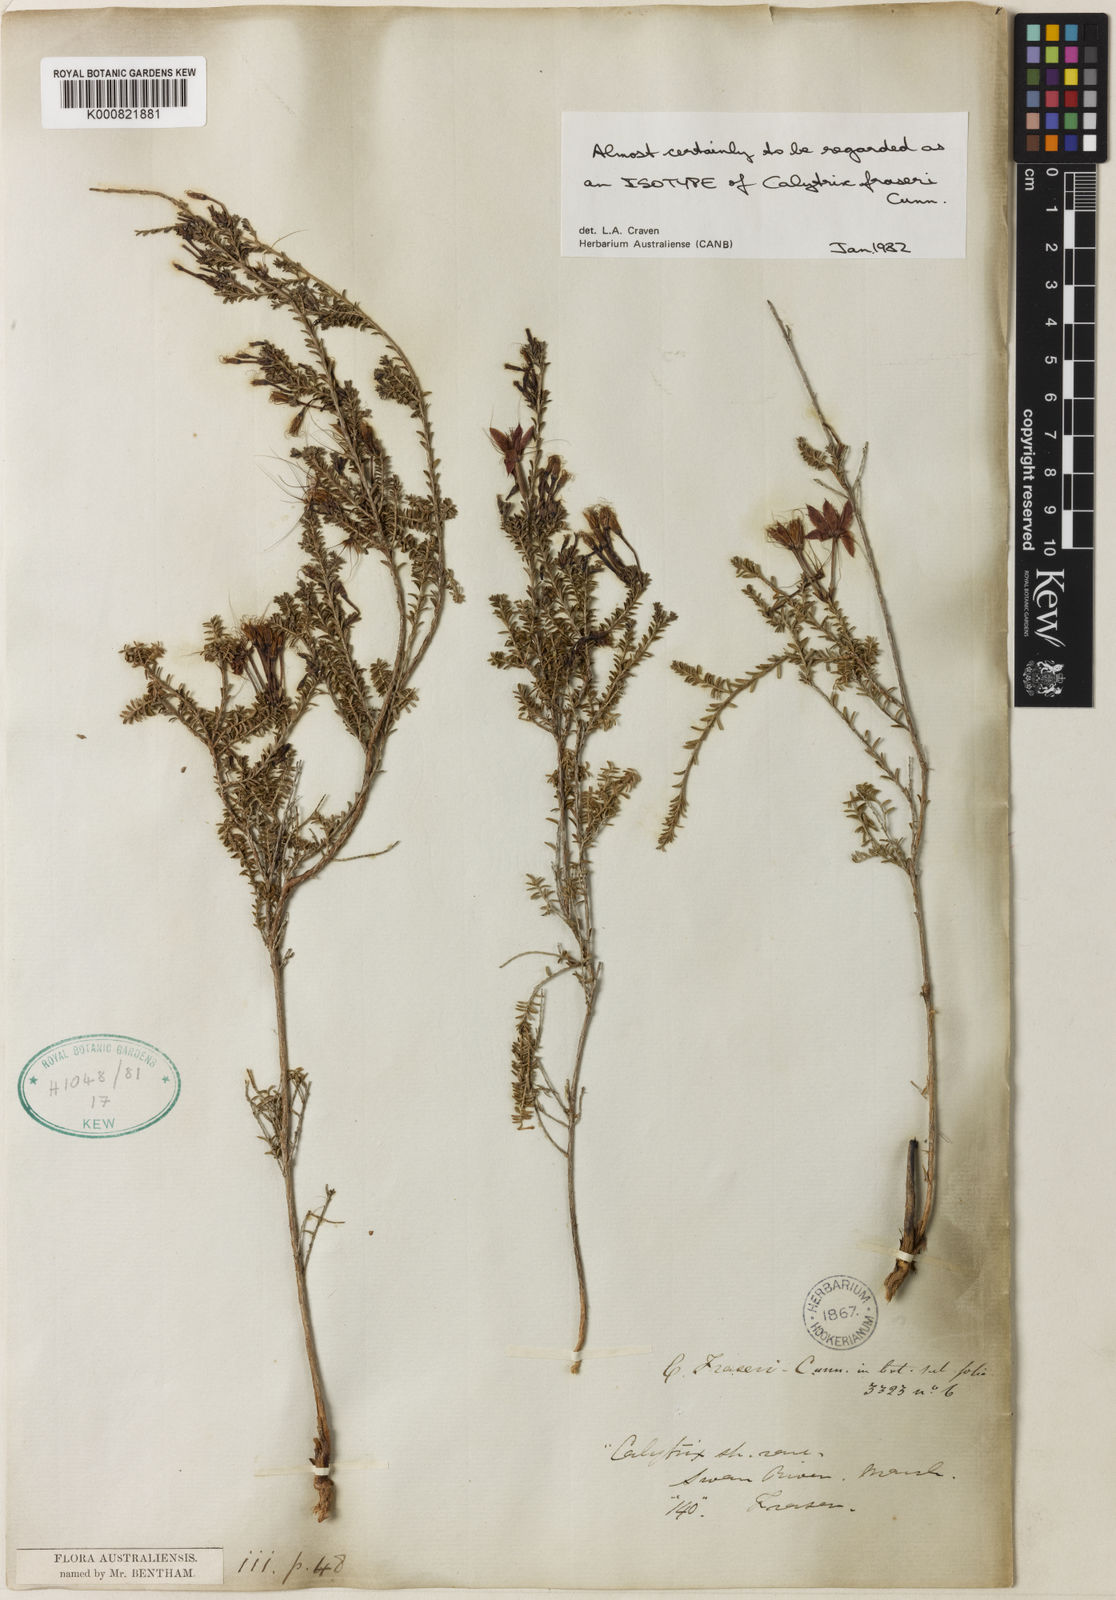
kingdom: Plantae
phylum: Tracheophyta
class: Magnoliopsida
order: Myrtales
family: Myrtaceae
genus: Calytrix
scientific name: Calytrix fraseri
